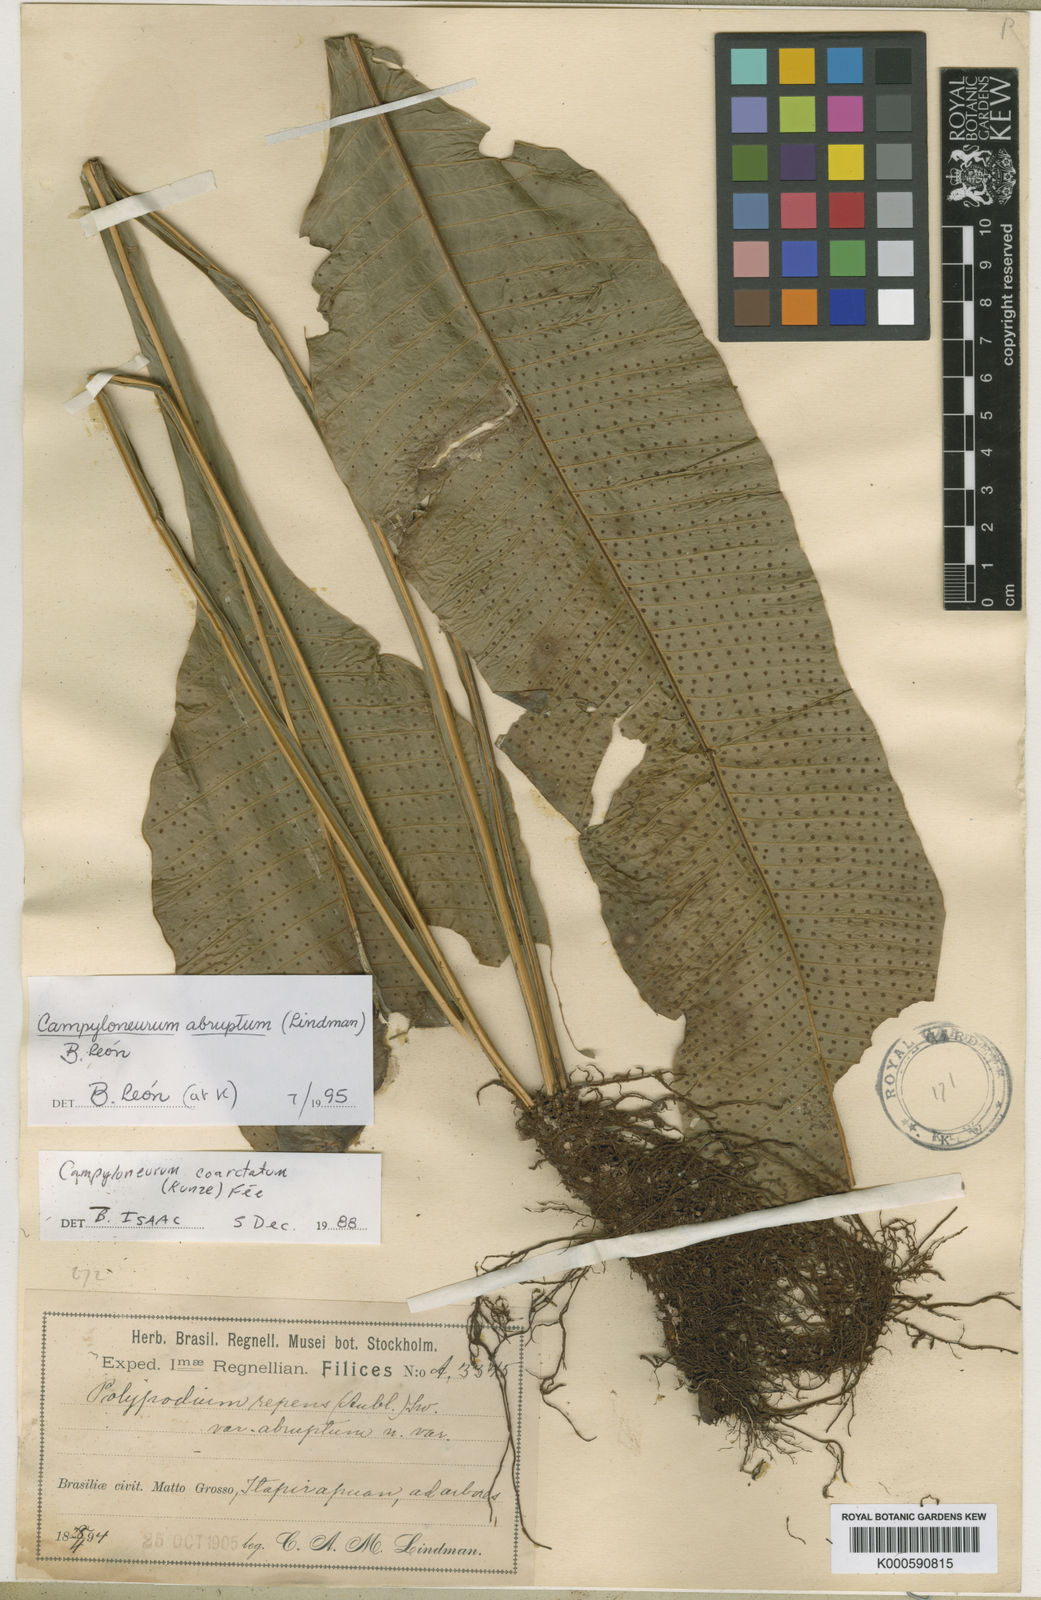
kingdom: Plantae
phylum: Tracheophyta
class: Polypodiopsida
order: Polypodiales
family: Polypodiaceae
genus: Campyloneurum
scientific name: Campyloneurum
